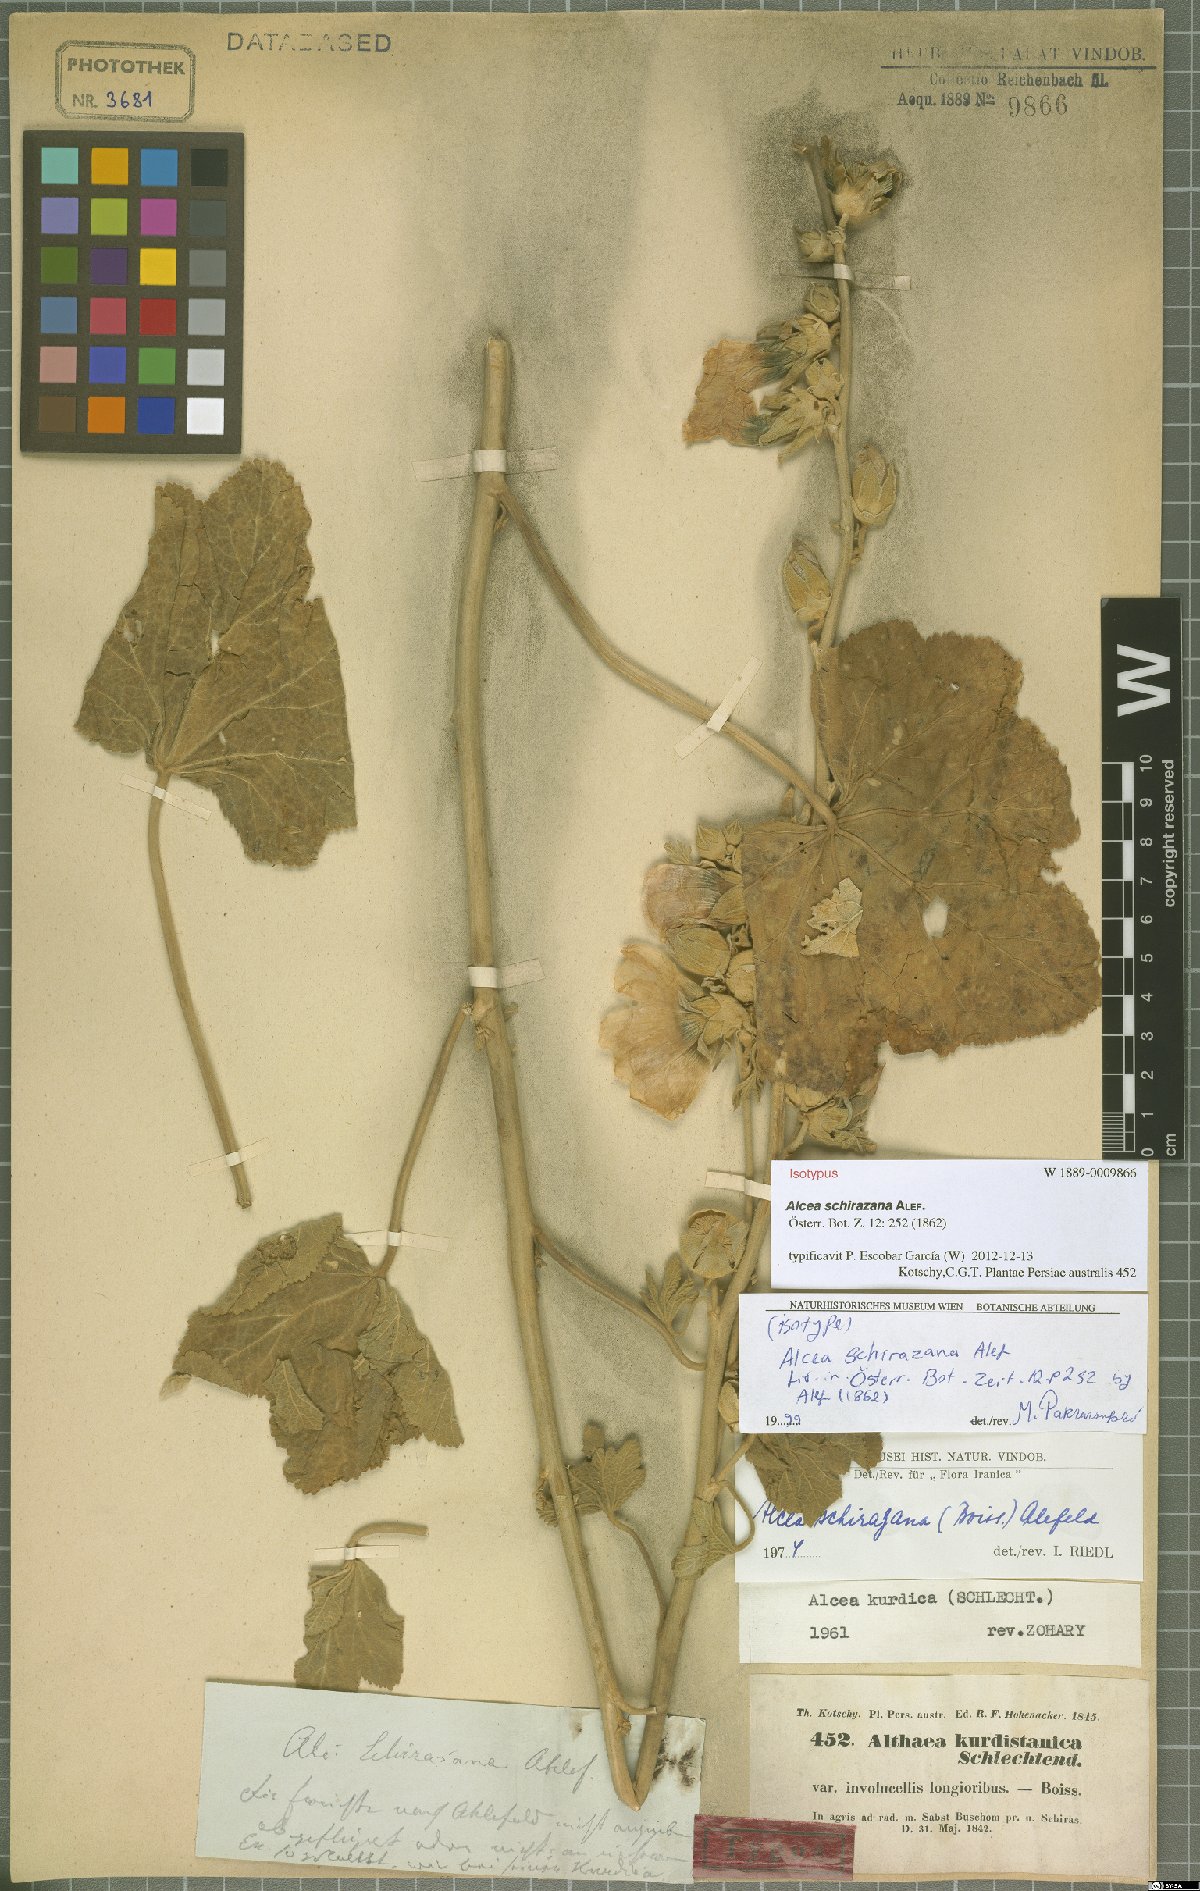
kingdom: Plantae
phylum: Tracheophyta
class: Magnoliopsida
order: Malvales
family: Malvaceae
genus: Alcea
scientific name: Alcea schirazana
